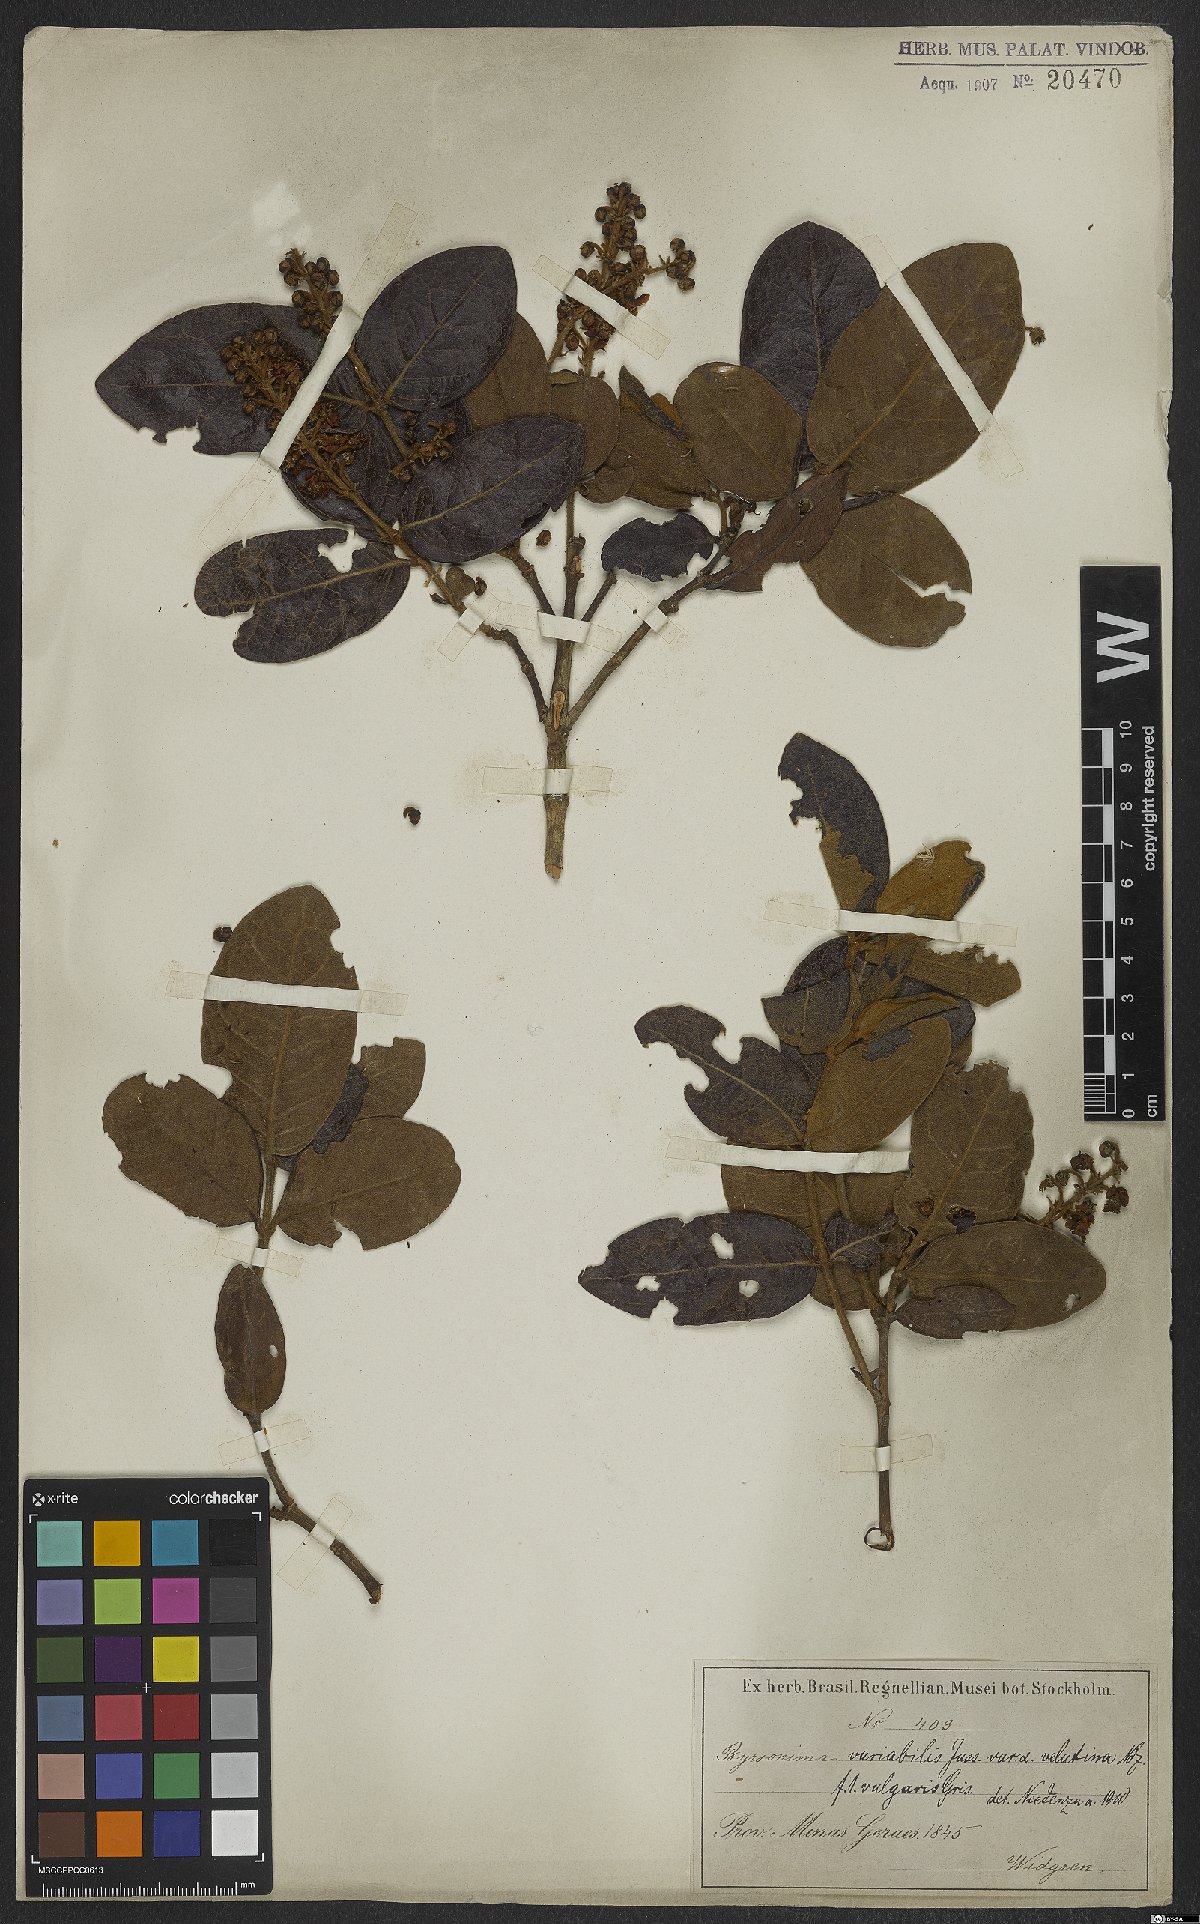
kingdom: Plantae
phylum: Tracheophyta
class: Magnoliopsida
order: Malpighiales
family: Malpighiaceae
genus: Byrsonima
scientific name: Byrsonima variabilis
